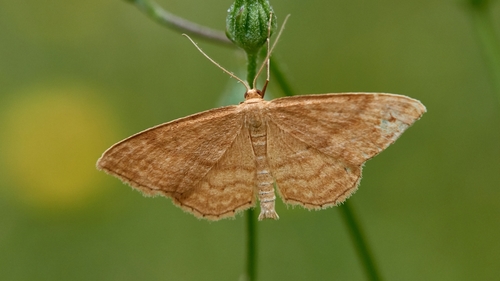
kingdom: Animalia
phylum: Arthropoda
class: Insecta
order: Lepidoptera
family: Geometridae
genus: Idaea
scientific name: Idaea ochrata
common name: Bright wave
